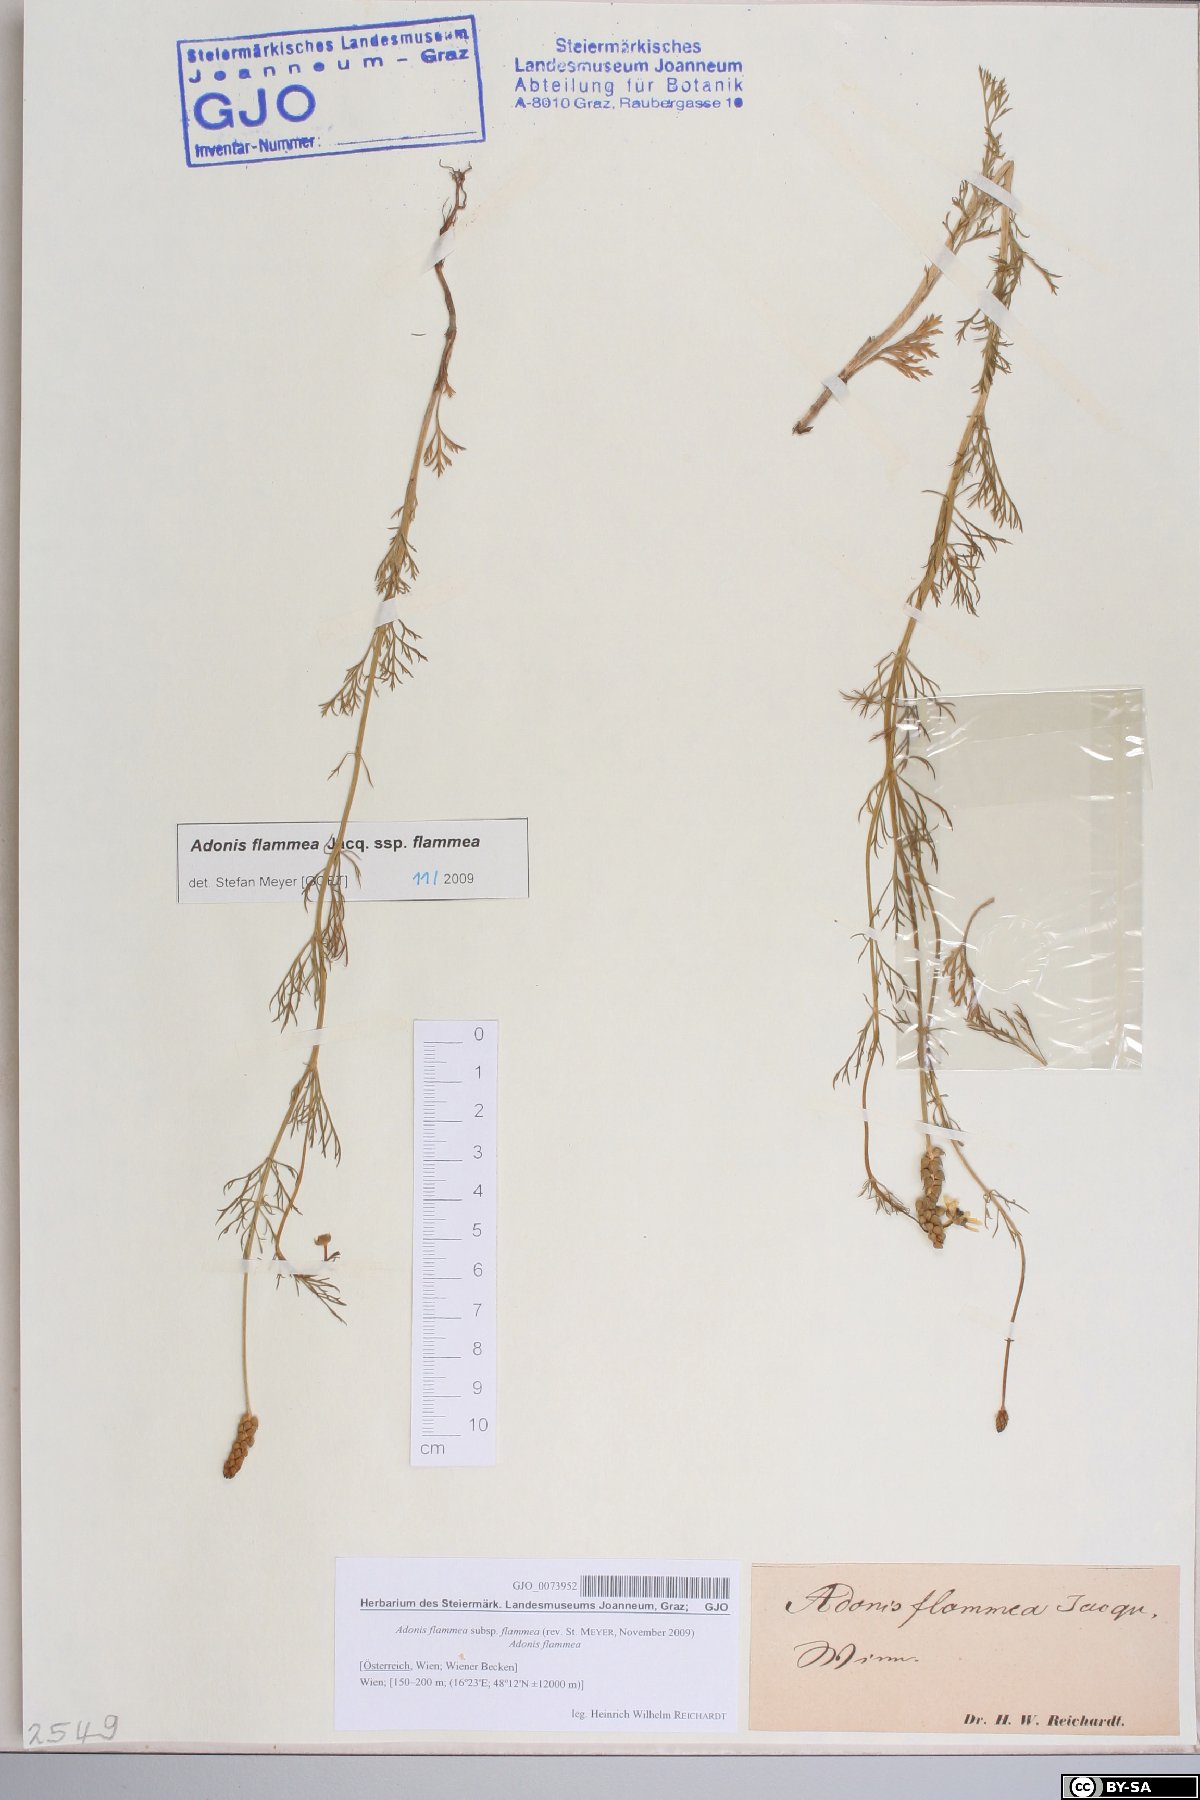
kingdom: Plantae
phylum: Tracheophyta
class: Magnoliopsida
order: Ranunculales
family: Ranunculaceae
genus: Adonis
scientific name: Adonis flammea
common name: Large pheasant's-eye
